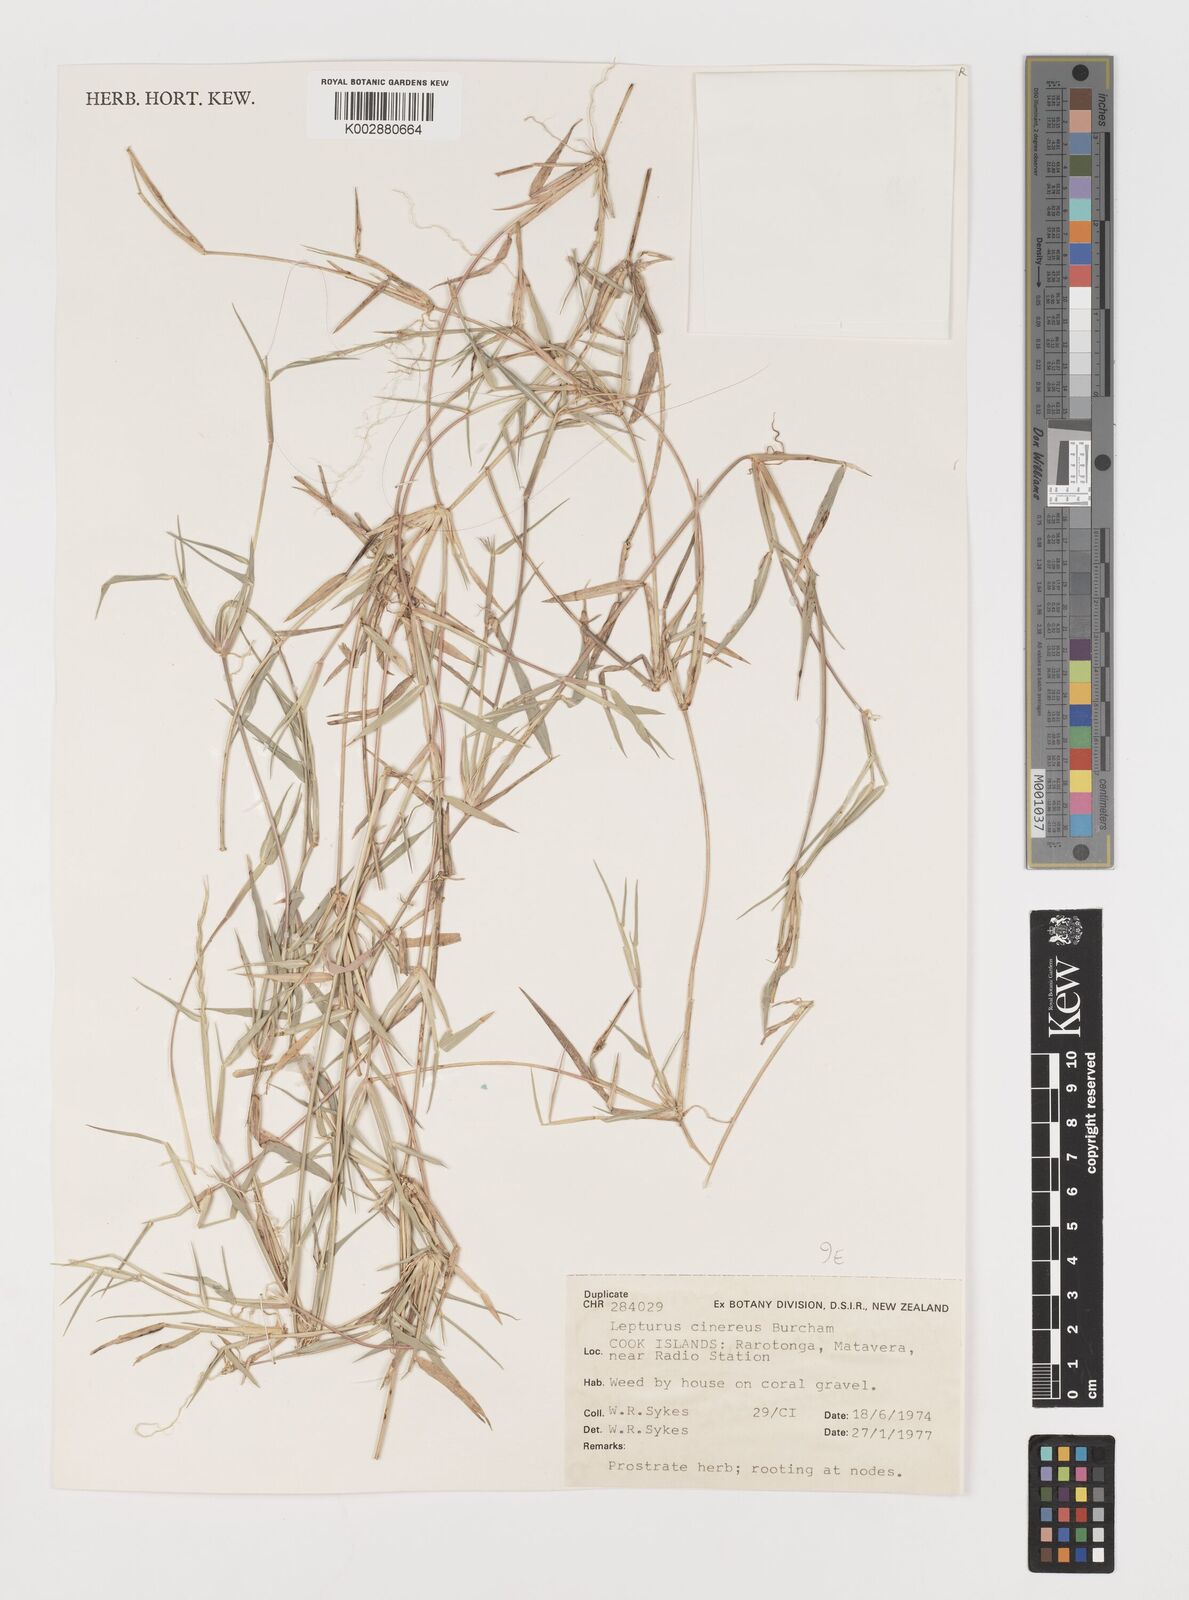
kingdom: Plantae
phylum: Tracheophyta
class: Liliopsida
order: Poales
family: Poaceae
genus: Lepturus
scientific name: Lepturus repens
